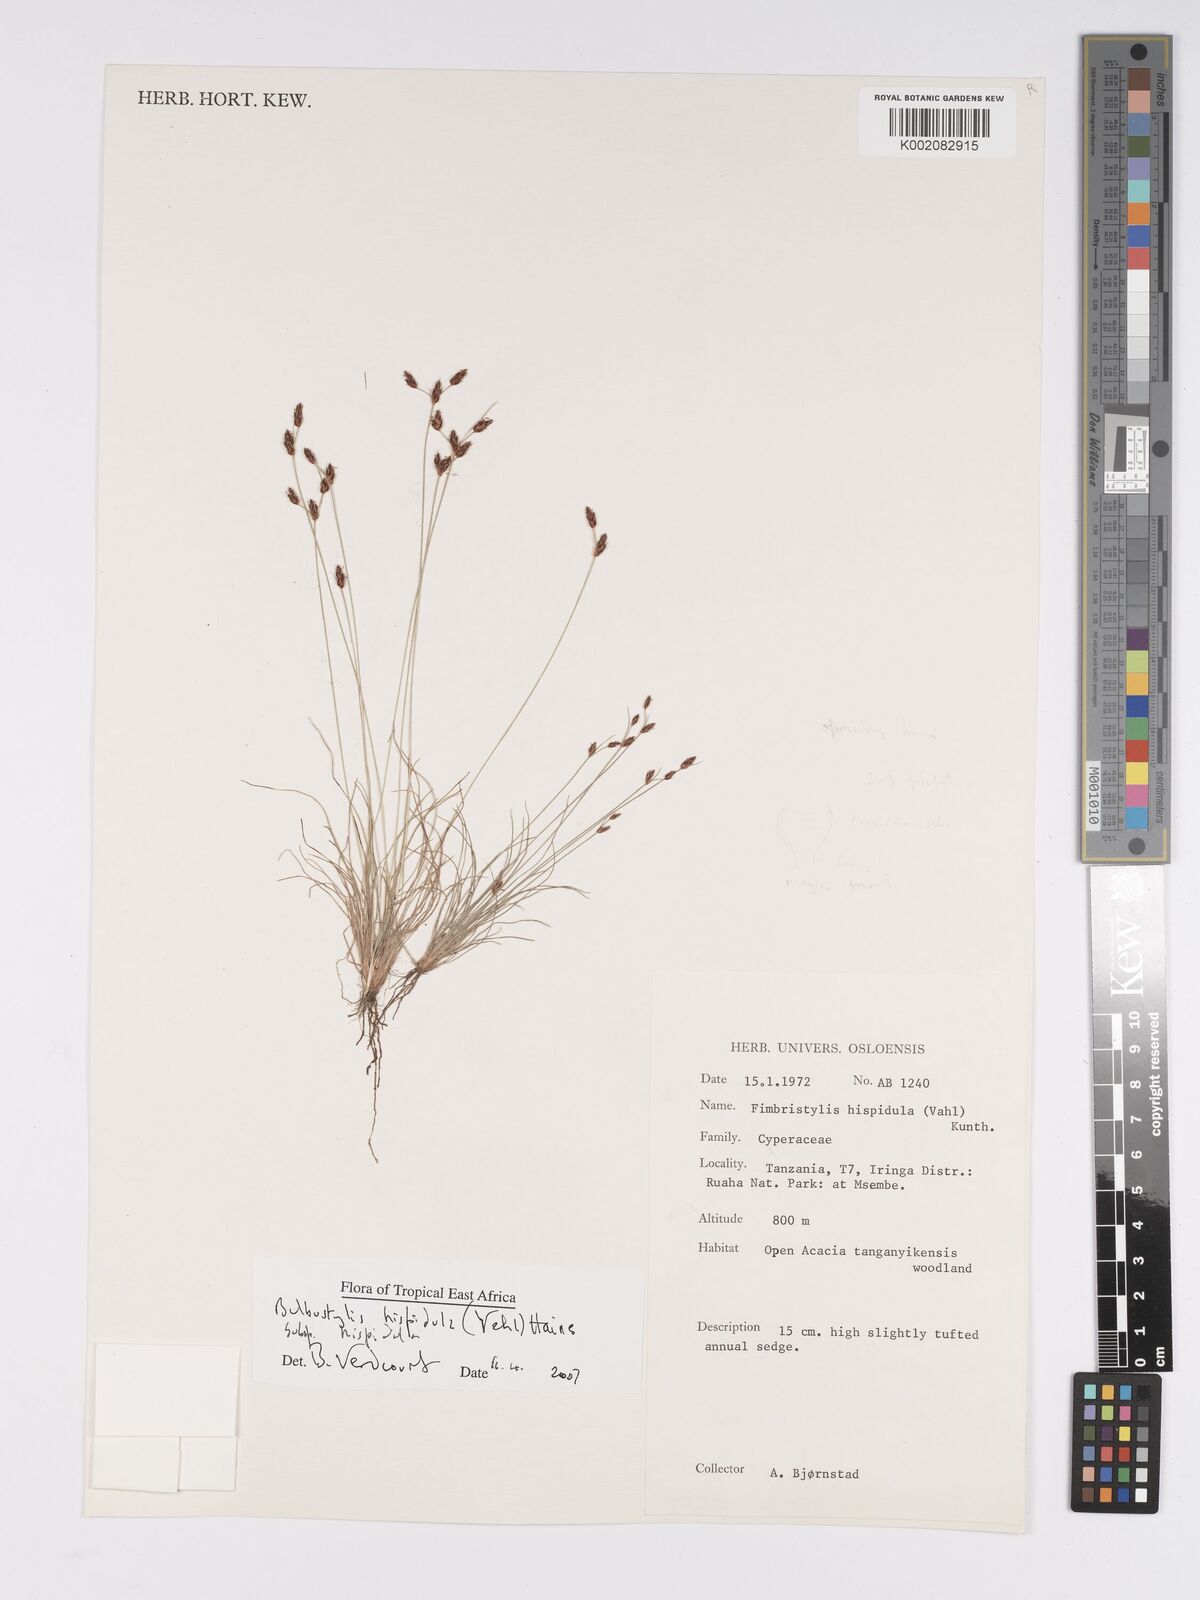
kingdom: Plantae
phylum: Tracheophyta
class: Liliopsida
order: Poales
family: Cyperaceae
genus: Bulbostylis
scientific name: Bulbostylis hispidula
